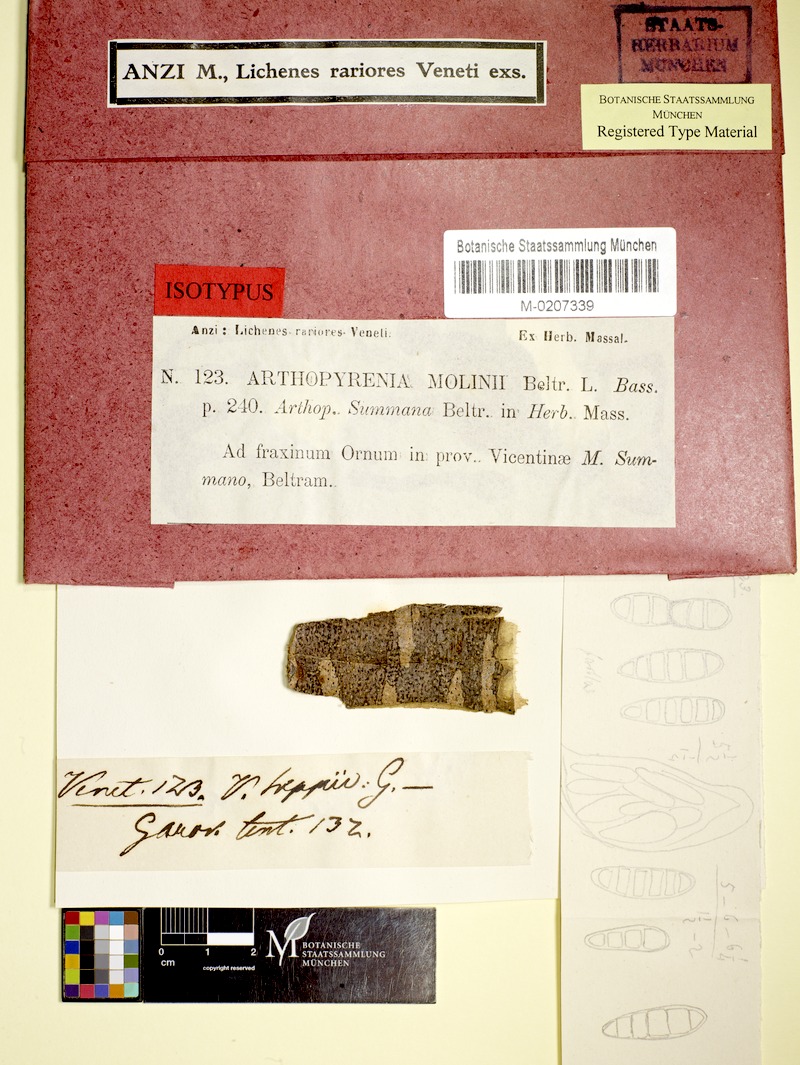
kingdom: Fungi
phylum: Ascomycota
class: Dothideomycetes
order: Pleosporales
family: Arthopyreniaceae
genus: Arthopyrenia
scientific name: Arthopyrenia molinii
